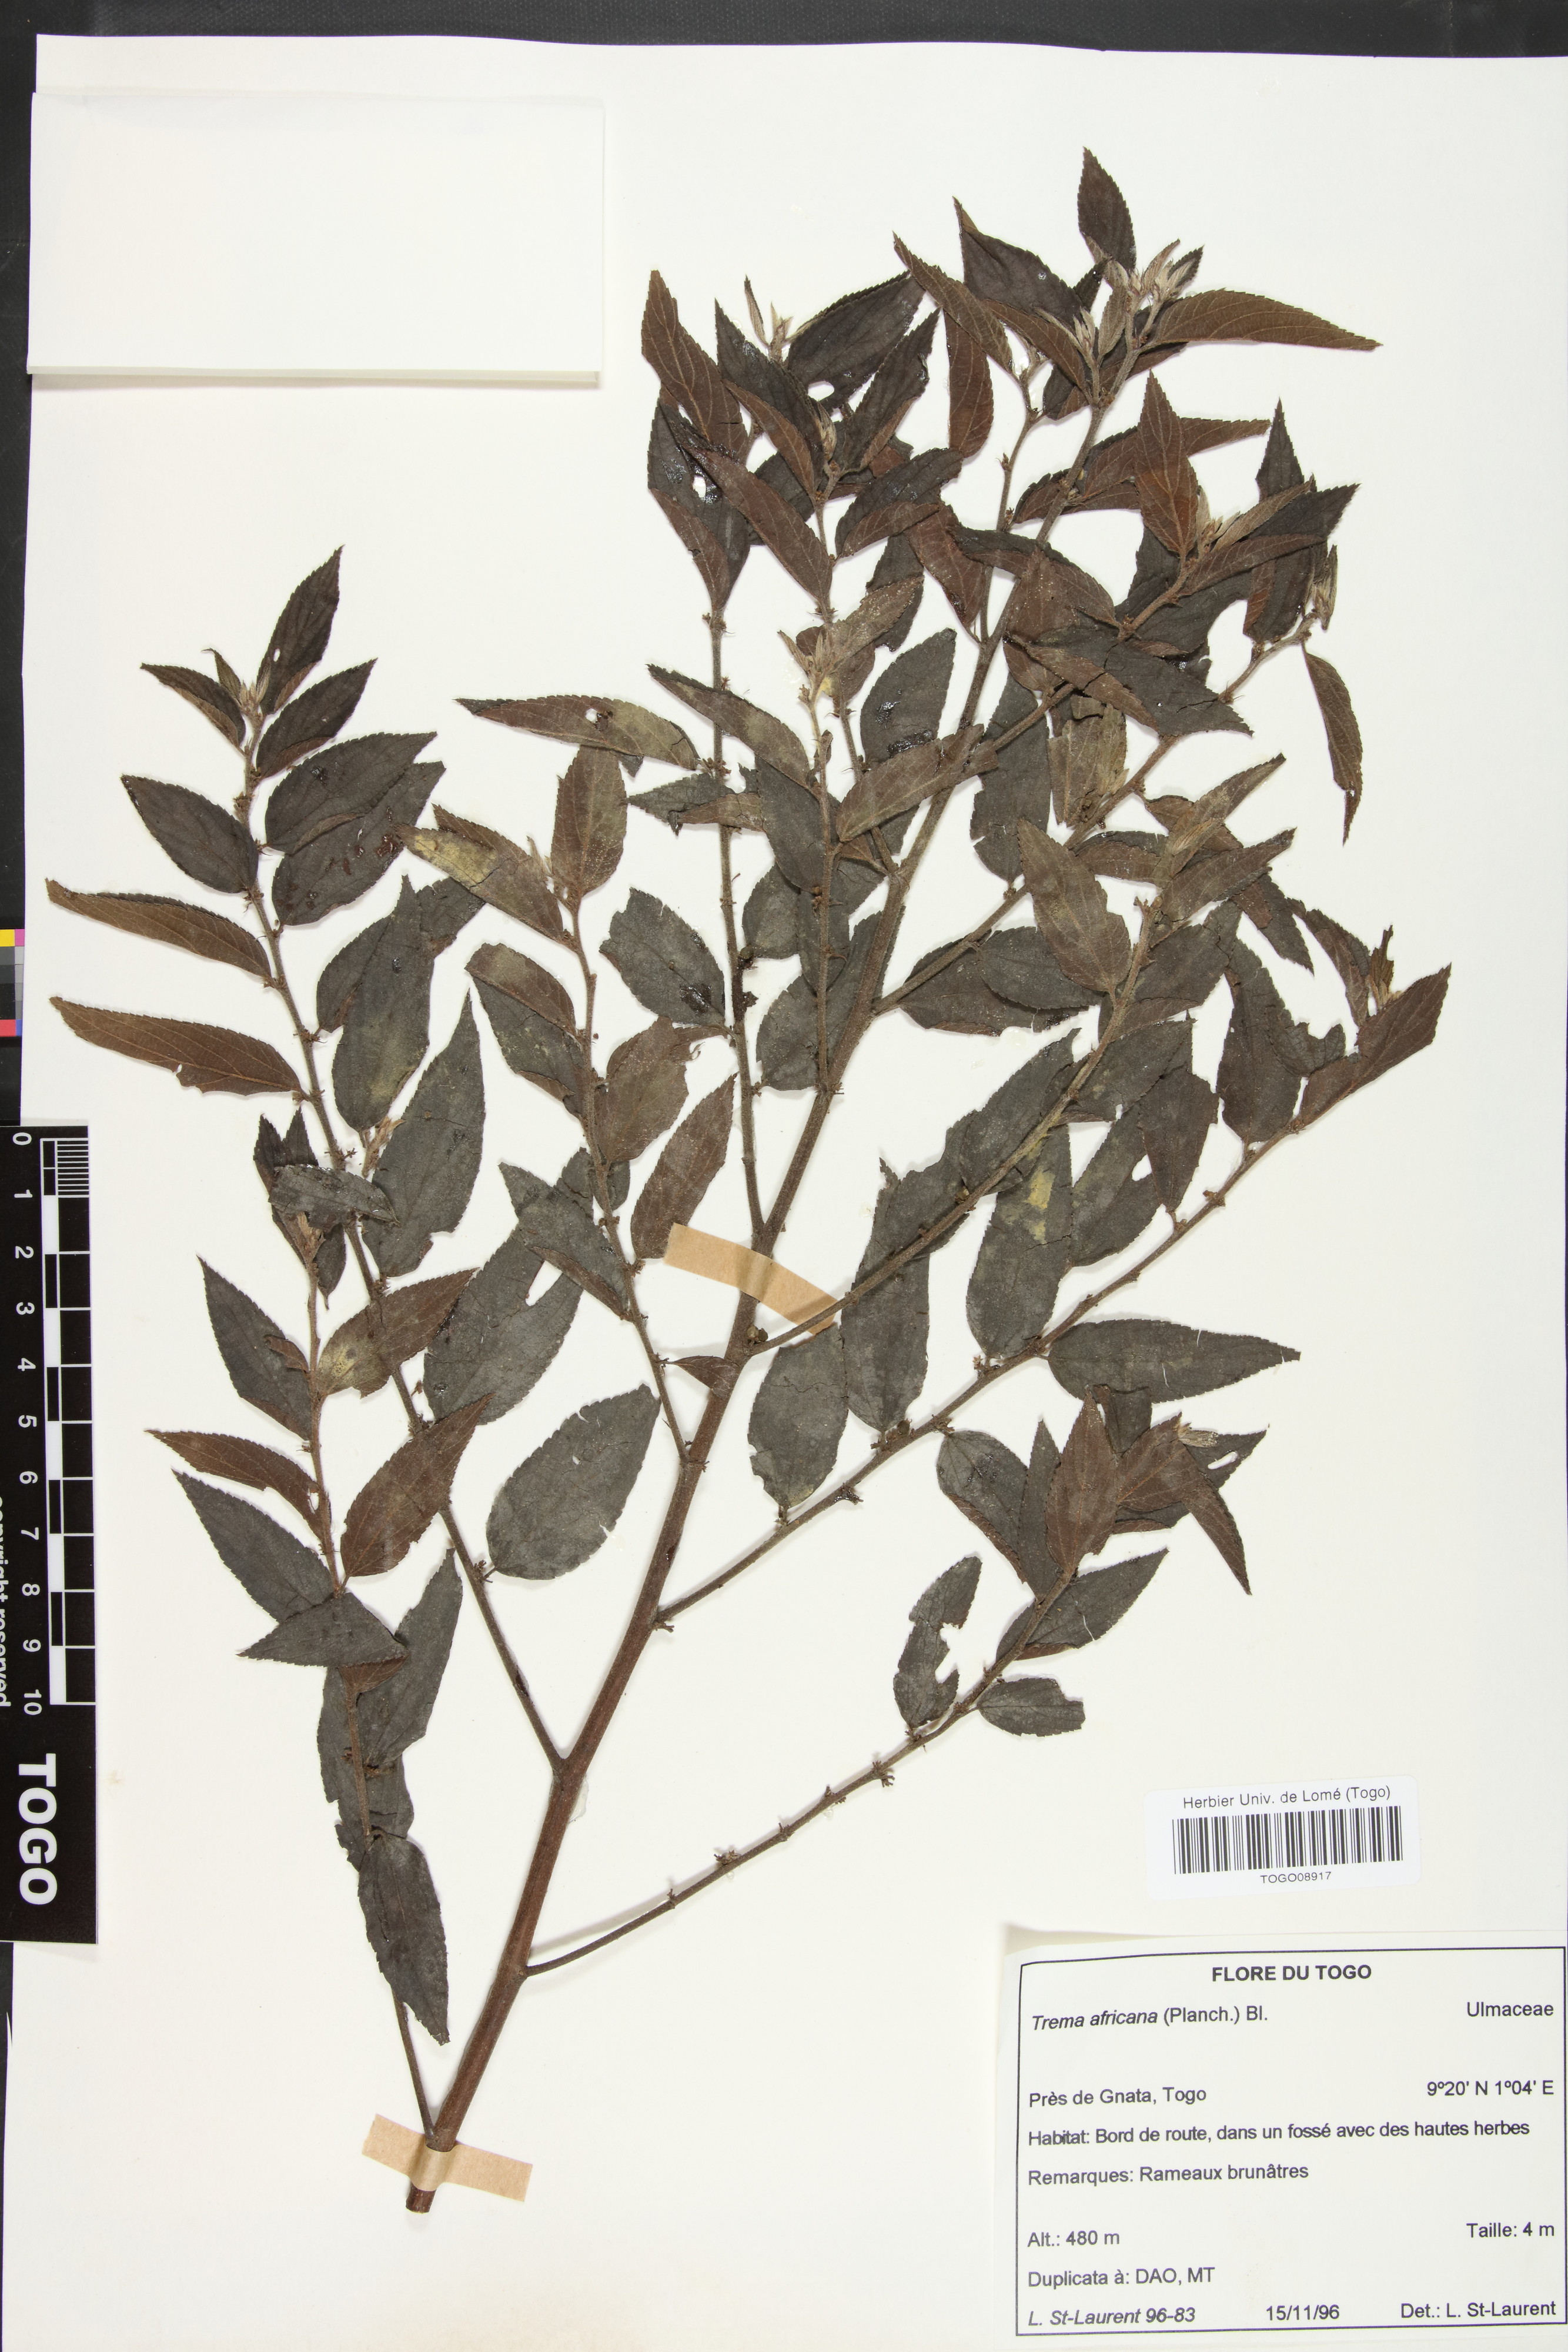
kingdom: Plantae
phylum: Tracheophyta
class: Magnoliopsida
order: Rosales
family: Cannabaceae
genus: Trema
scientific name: Trema orientale
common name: Indian charcoal tree
